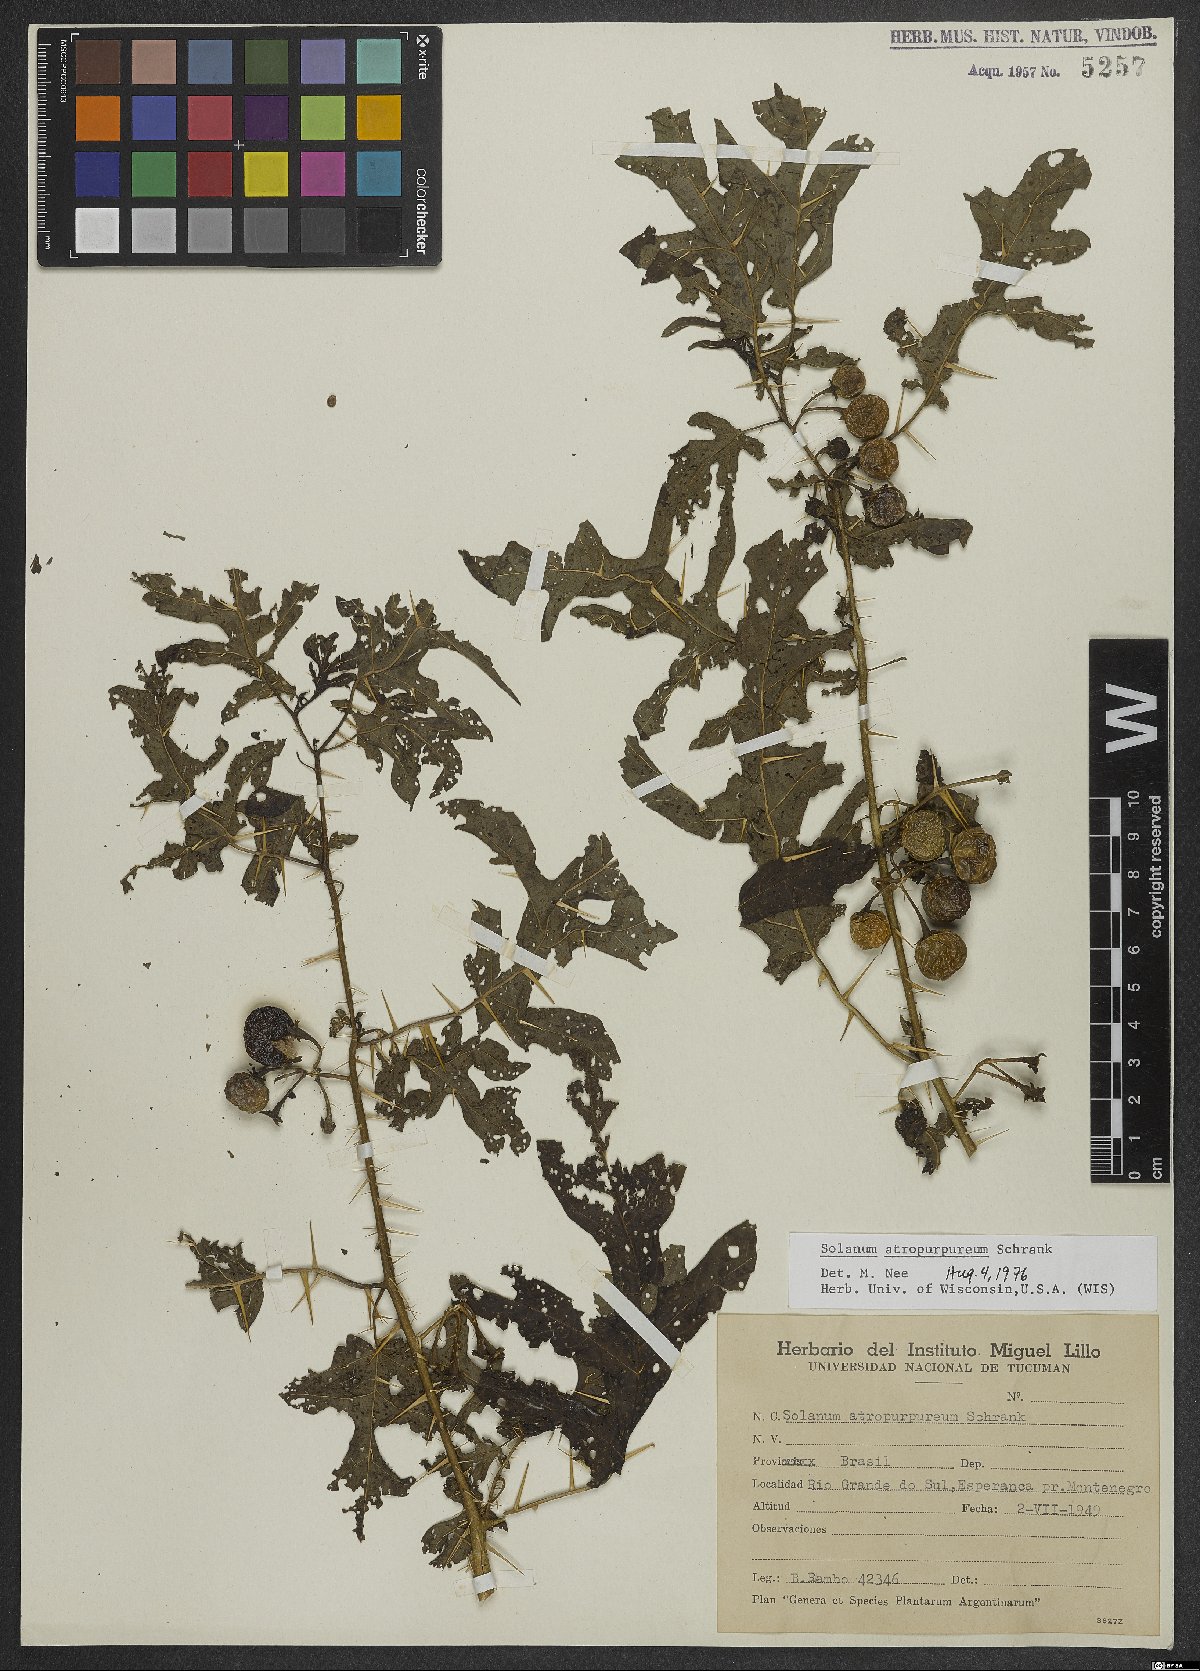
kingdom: Plantae
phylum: Tracheophyta
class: Magnoliopsida
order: Solanales
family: Solanaceae
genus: Solanum
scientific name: Solanum atropurpureum
